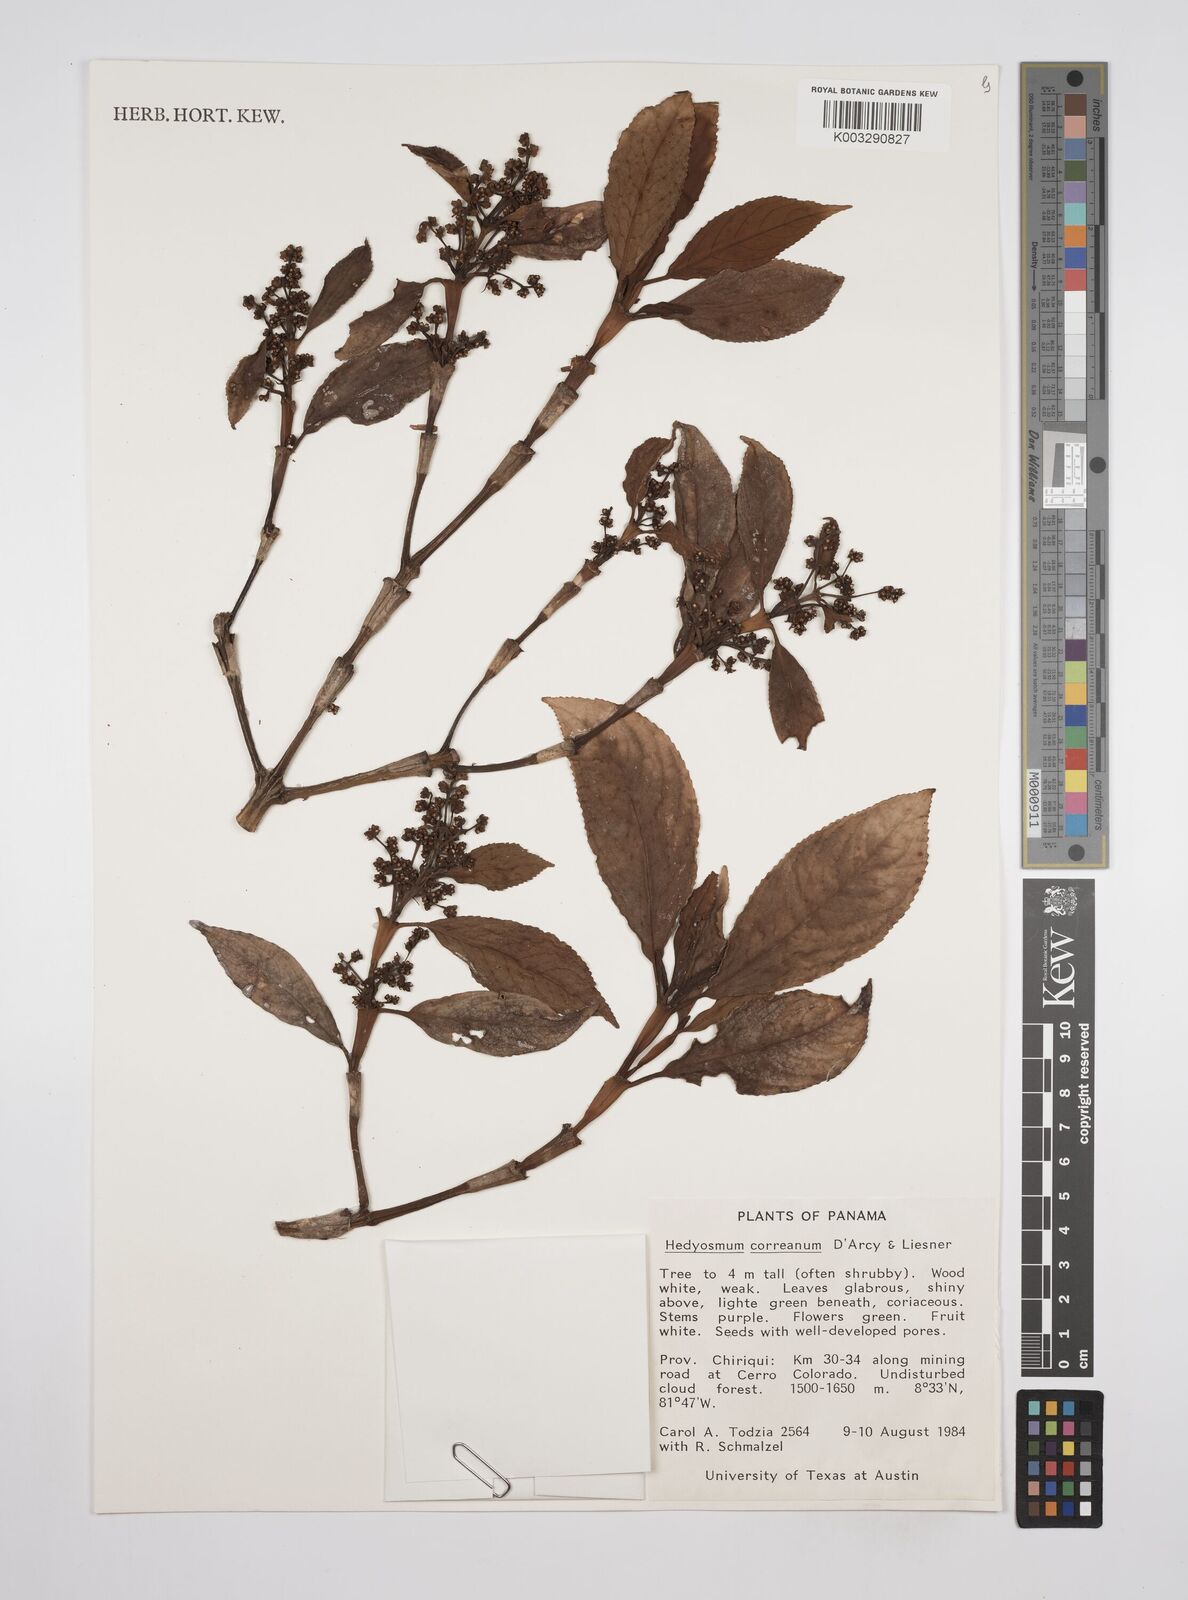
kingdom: Plantae
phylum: Tracheophyta
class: Magnoliopsida
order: Chloranthales
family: Chloranthaceae
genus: Hedyosmum
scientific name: Hedyosmum correanum
